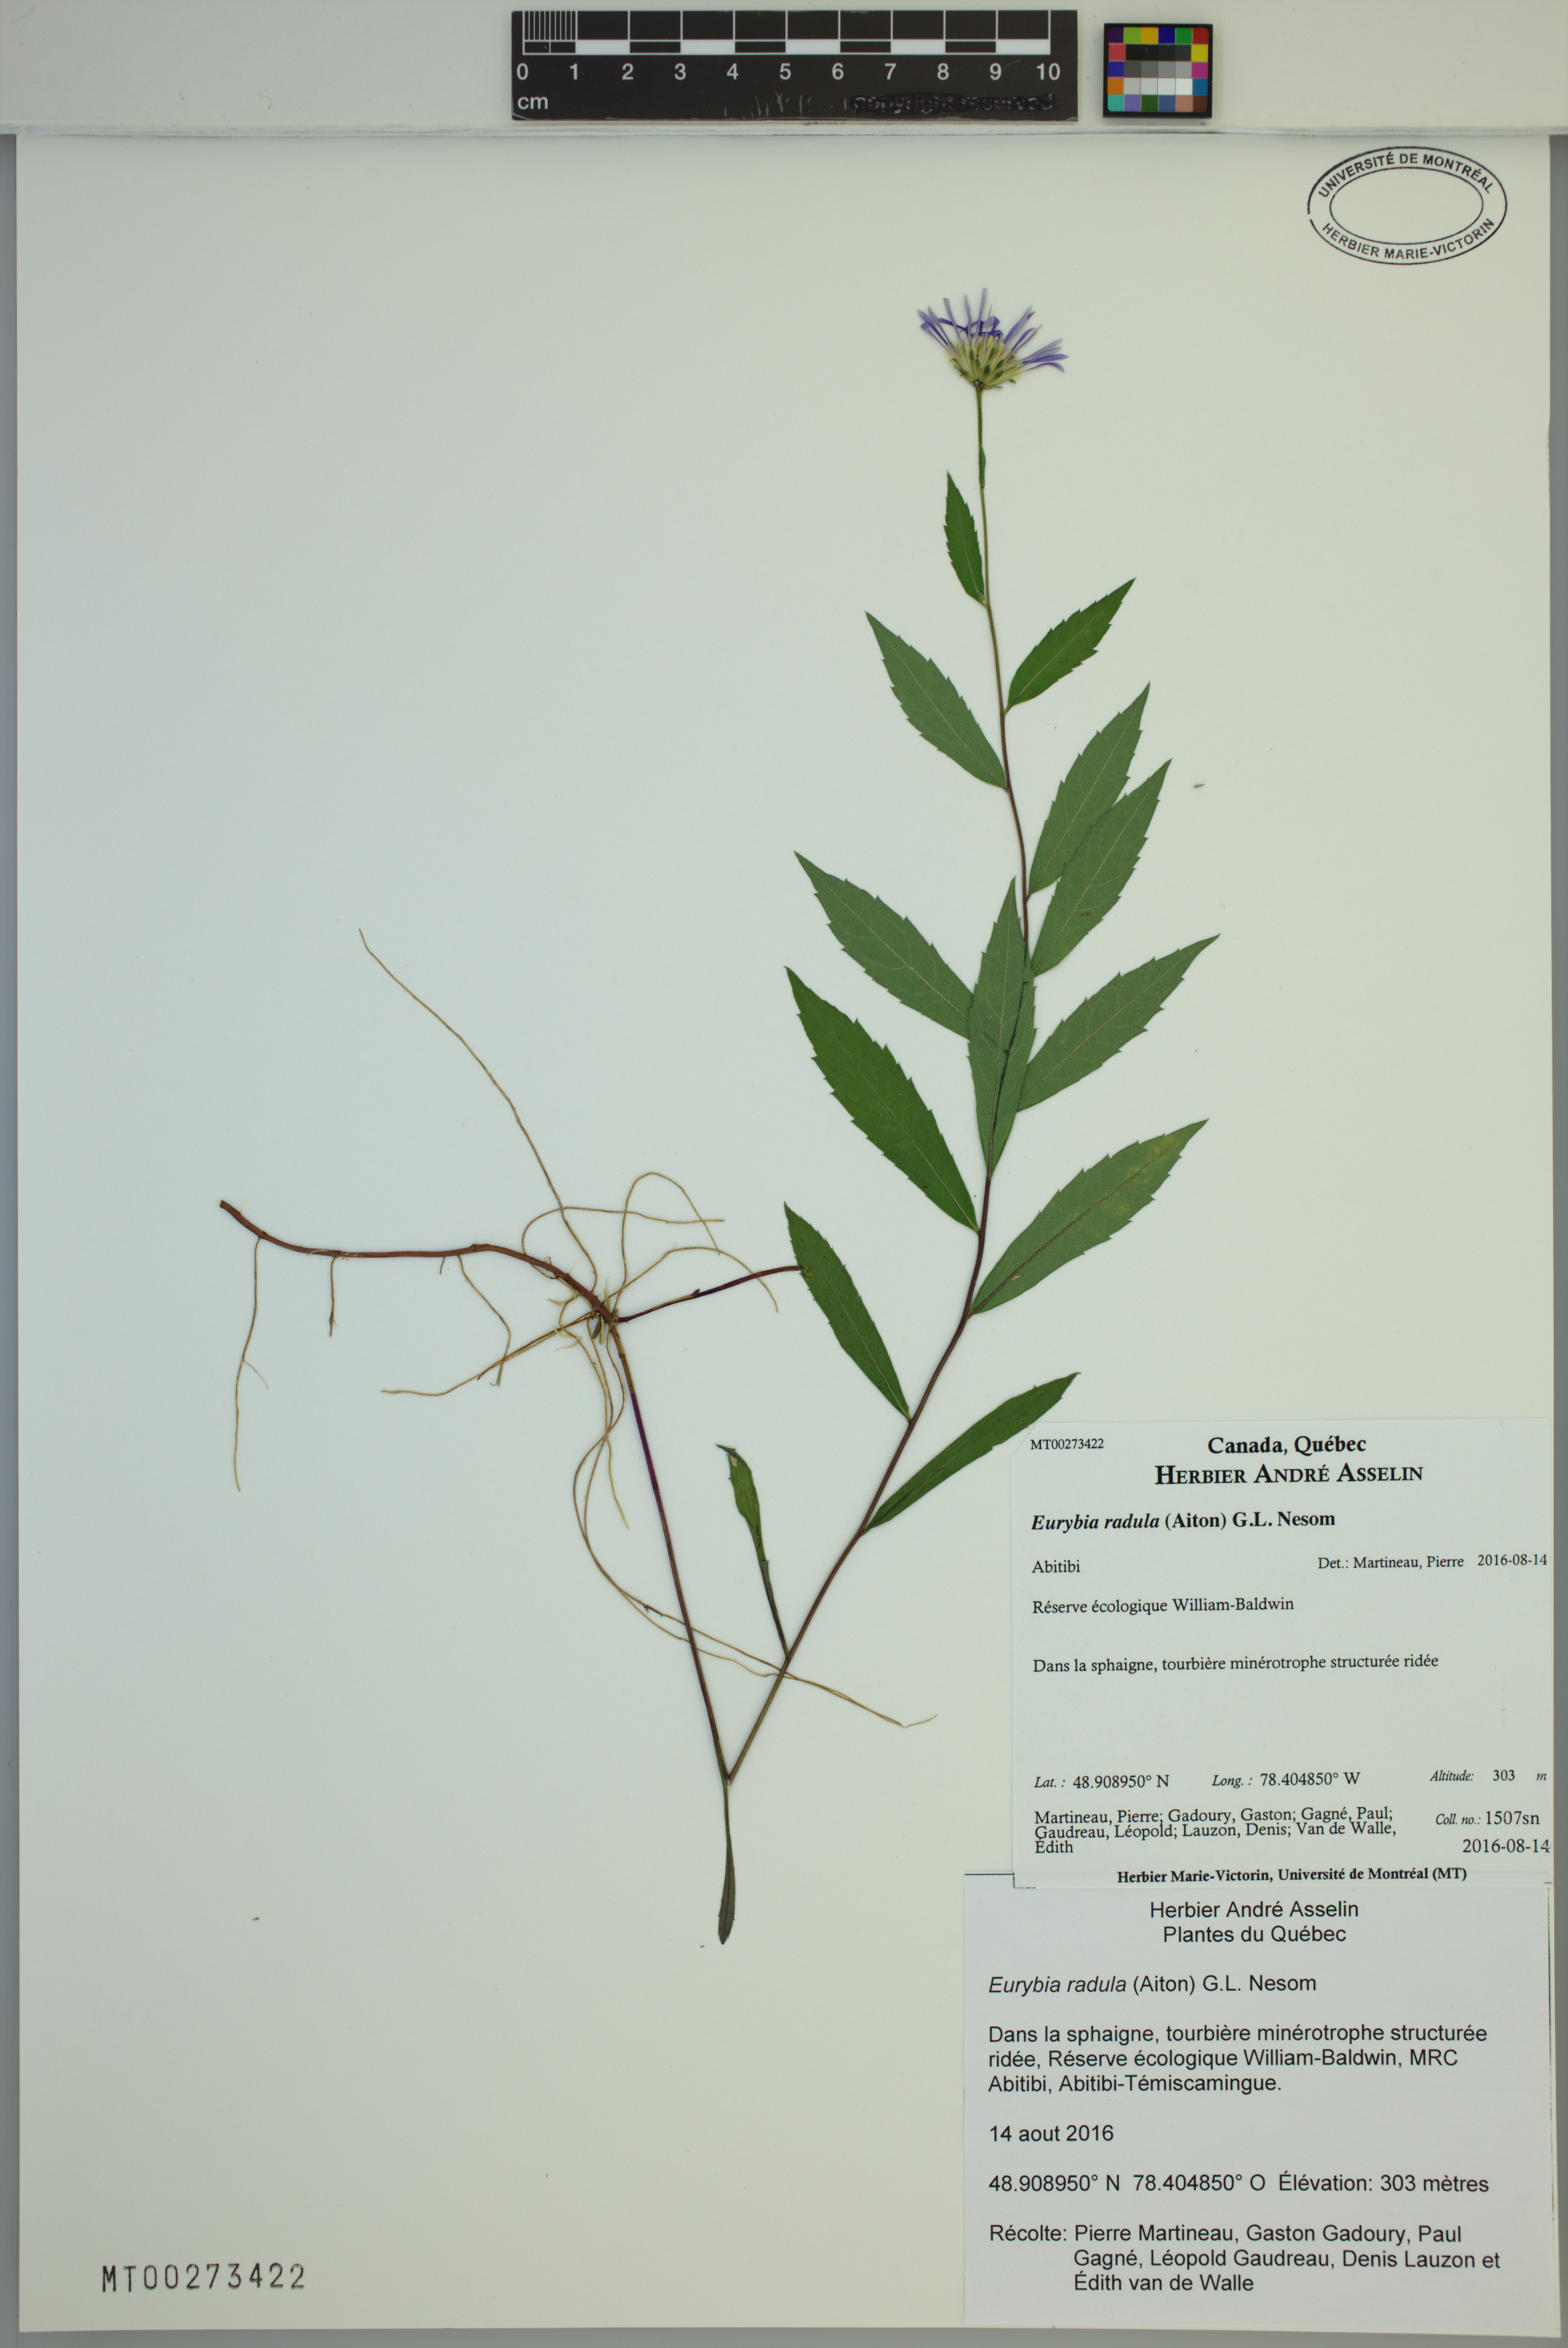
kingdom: Plantae
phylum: Tracheophyta
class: Magnoliopsida
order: Asterales
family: Asteraceae
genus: Eurybia
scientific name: Eurybia radula
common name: Low rough aster
